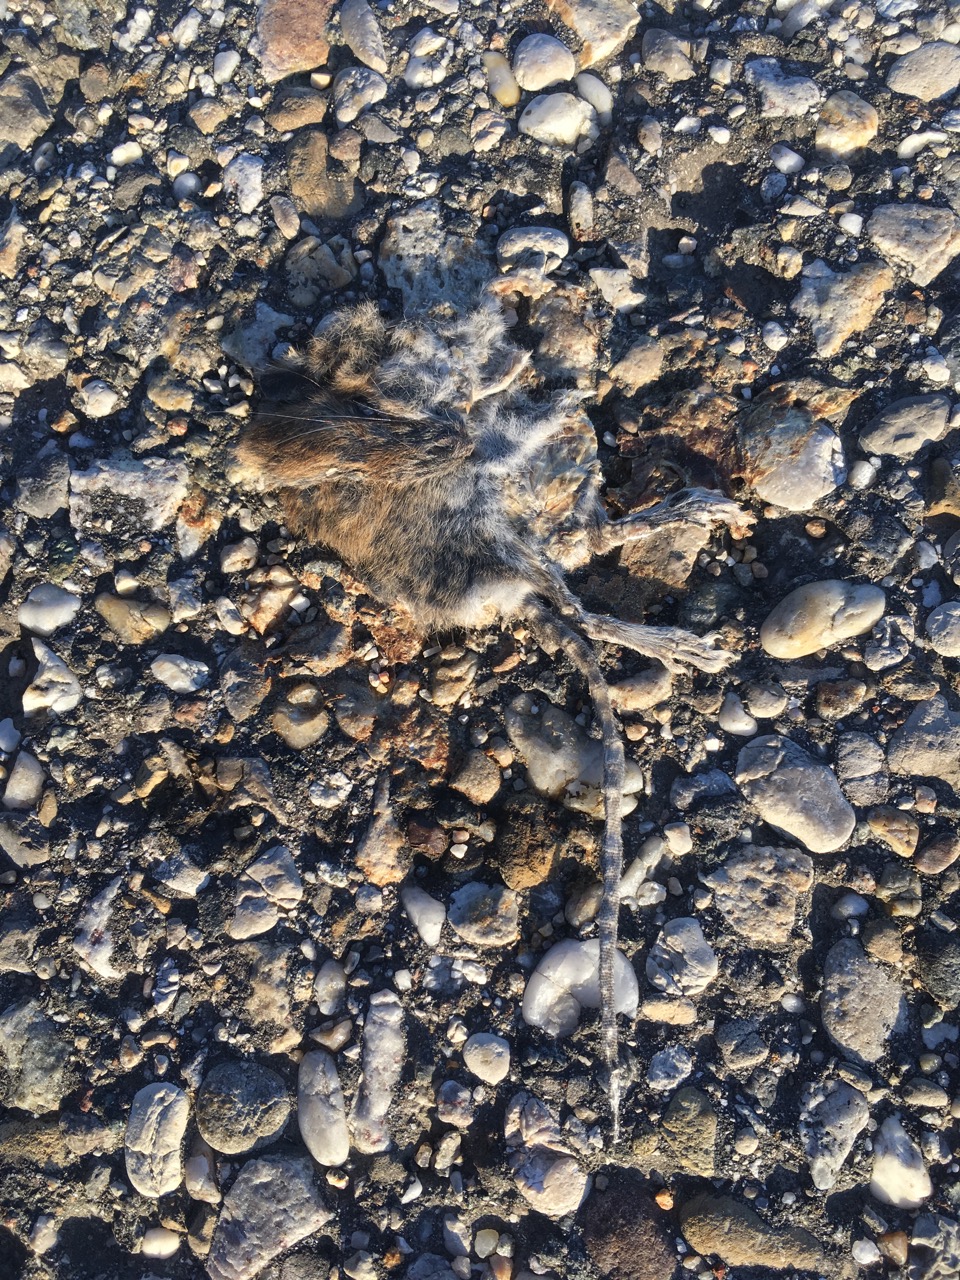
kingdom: Animalia
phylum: Chordata
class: Mammalia
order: Rodentia
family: Muridae
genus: Apodemus
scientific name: Apodemus
